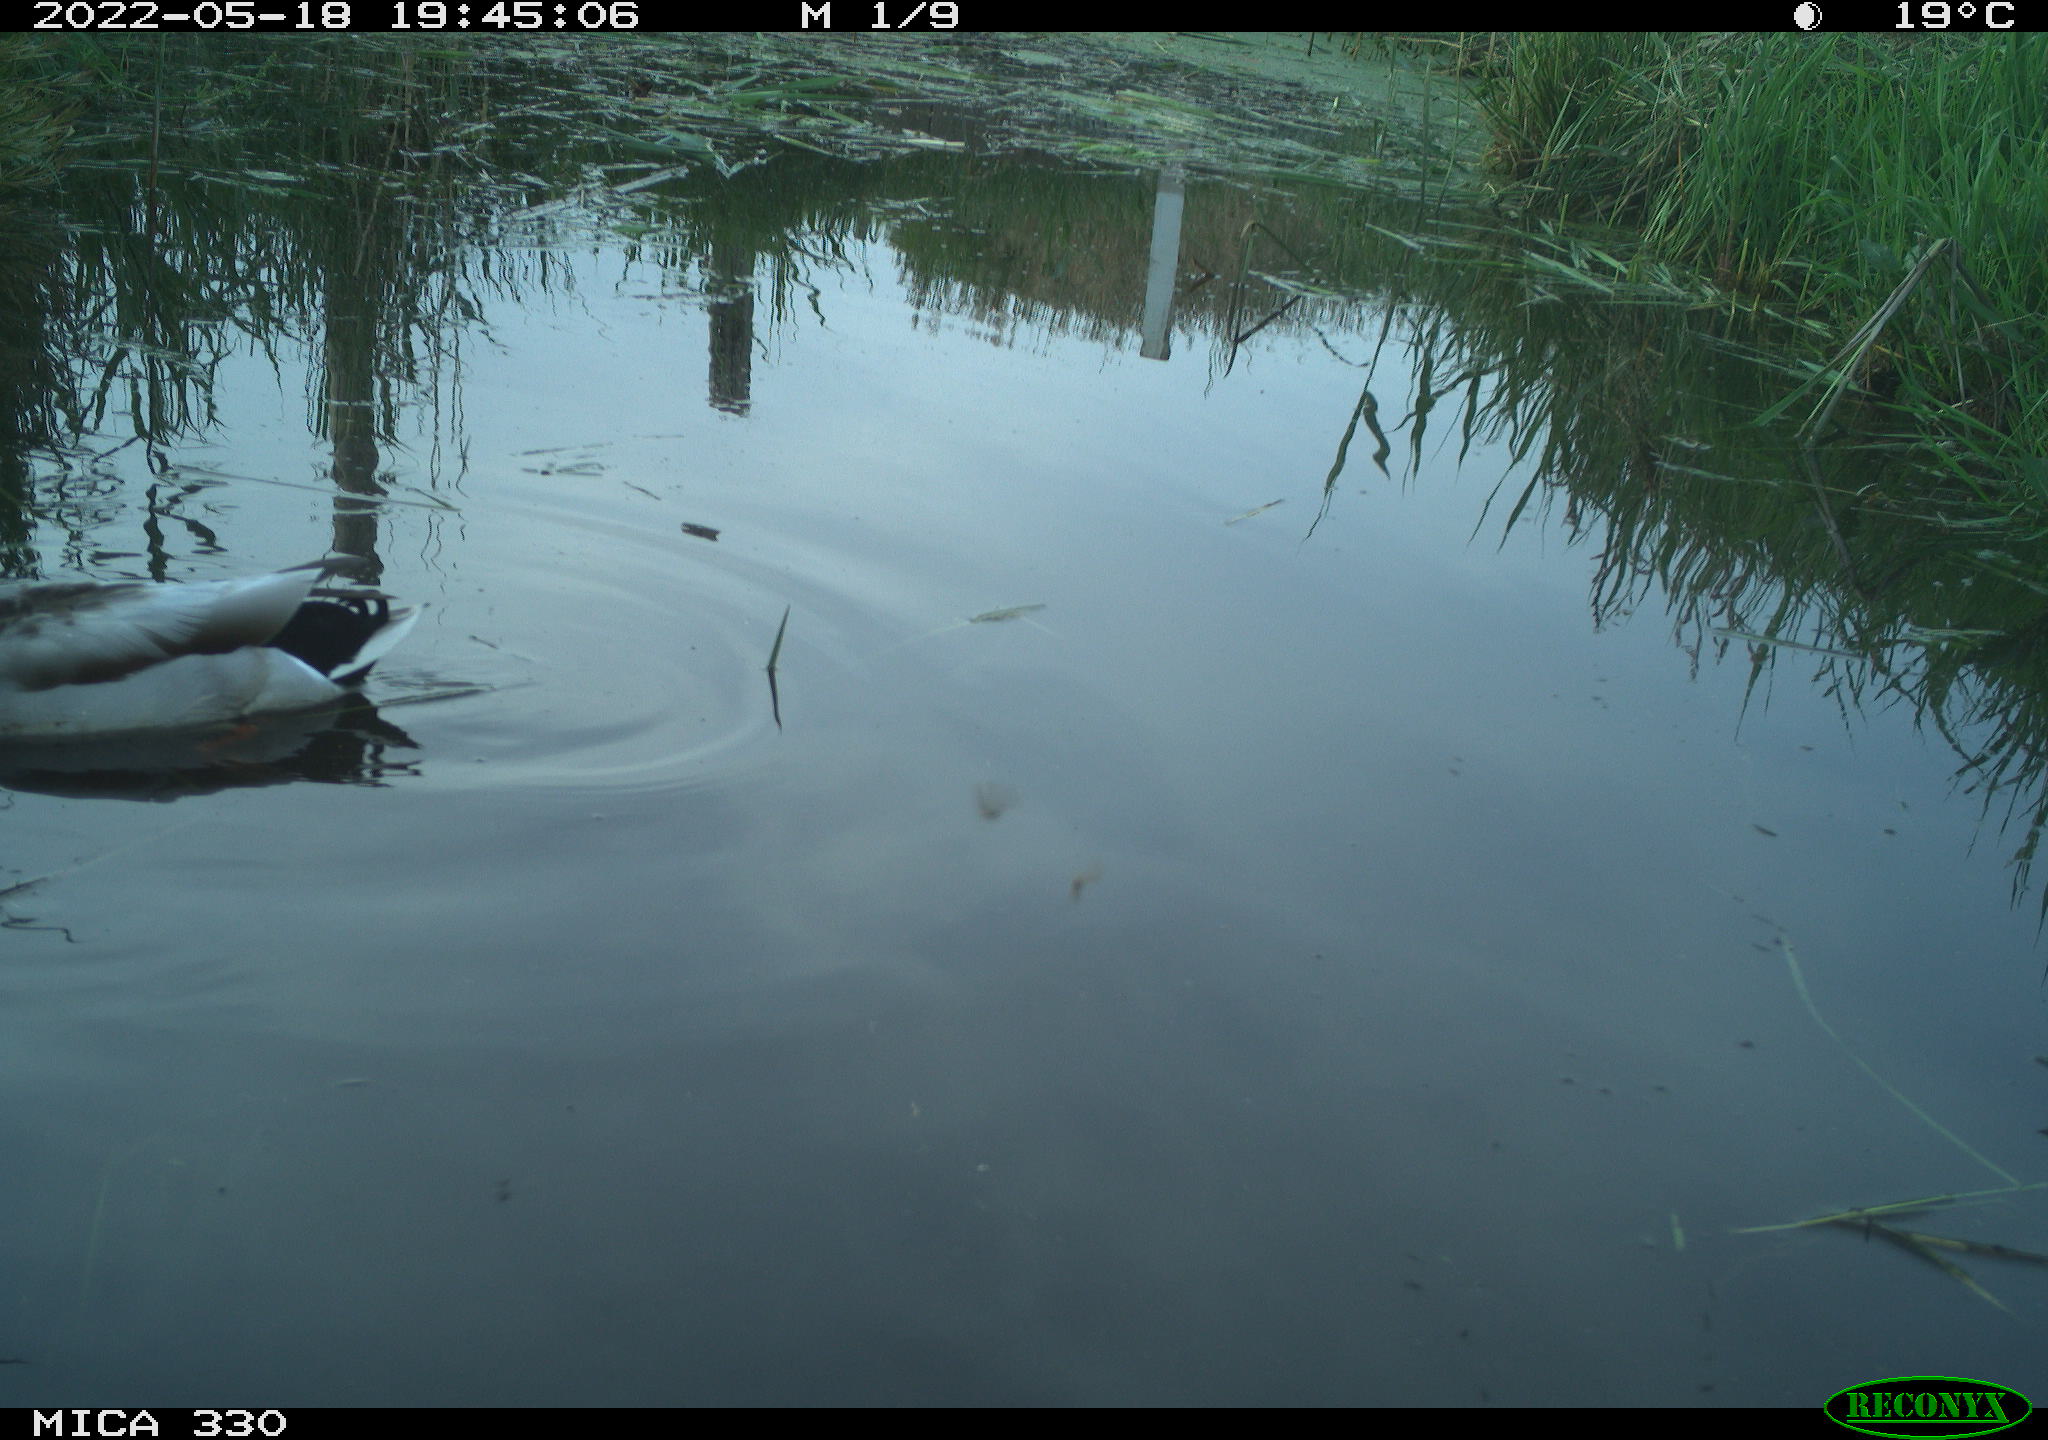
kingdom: Animalia
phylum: Chordata
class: Aves
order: Anseriformes
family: Anatidae
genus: Anas
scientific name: Anas platyrhynchos
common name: Mallard
